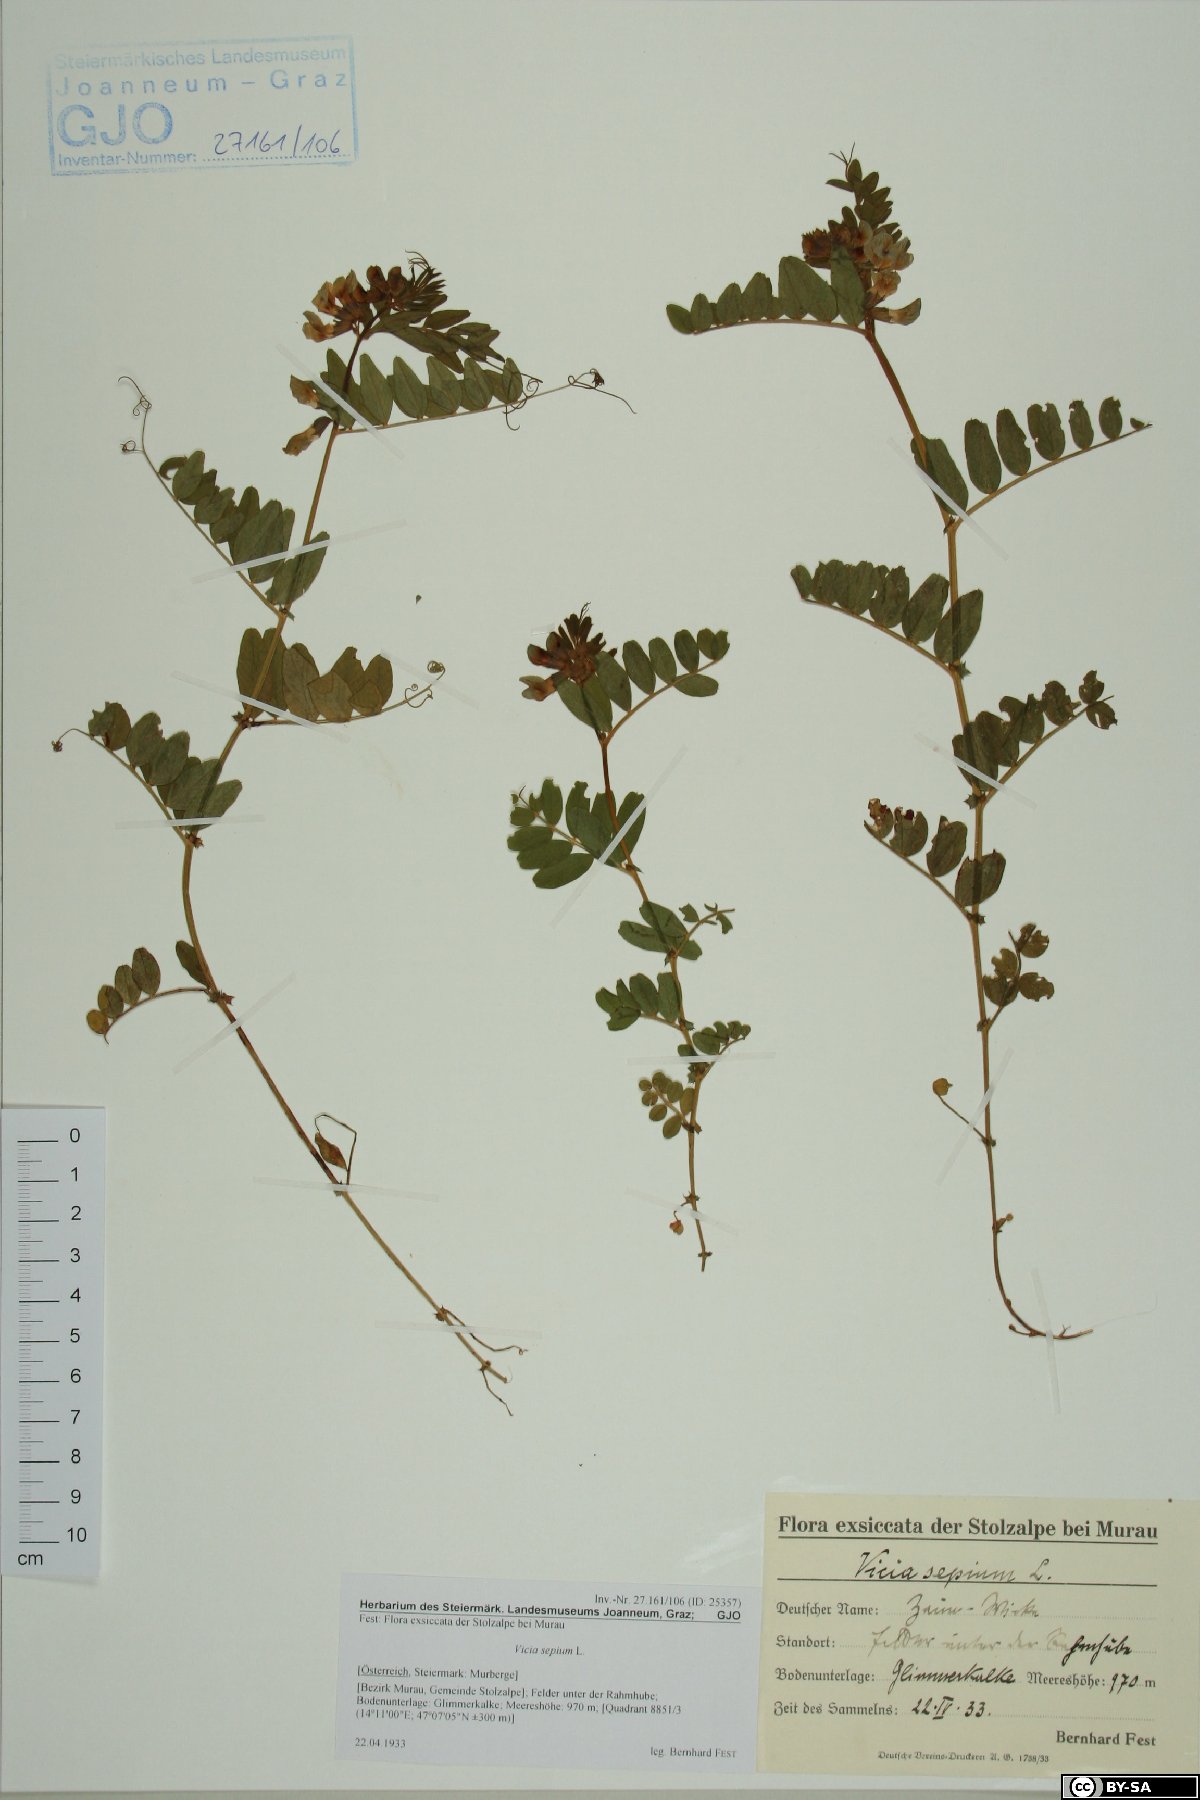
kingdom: Plantae
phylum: Tracheophyta
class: Magnoliopsida
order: Fabales
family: Fabaceae
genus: Vicia
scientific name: Vicia sepium
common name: Bush vetch
